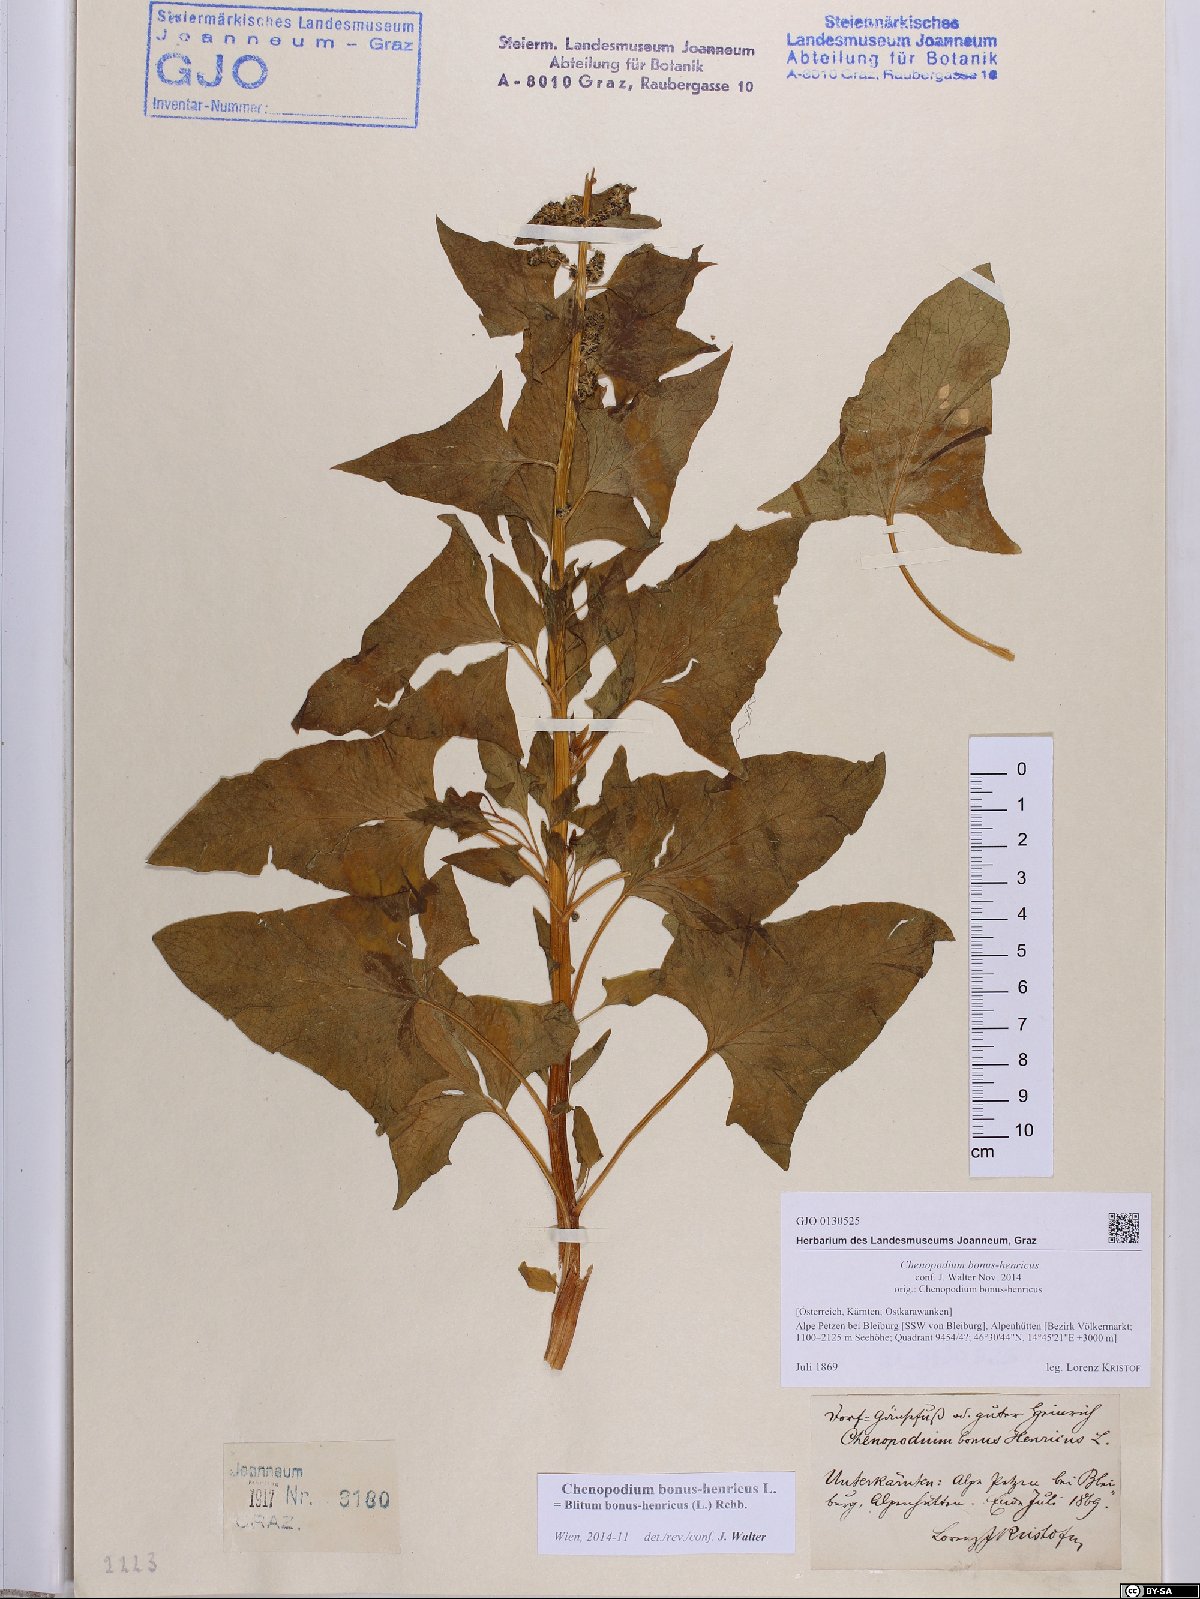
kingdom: Plantae
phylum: Tracheophyta
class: Magnoliopsida
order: Caryophyllales
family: Amaranthaceae
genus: Blitum
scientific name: Blitum bonus-henricus
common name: Good king henry
